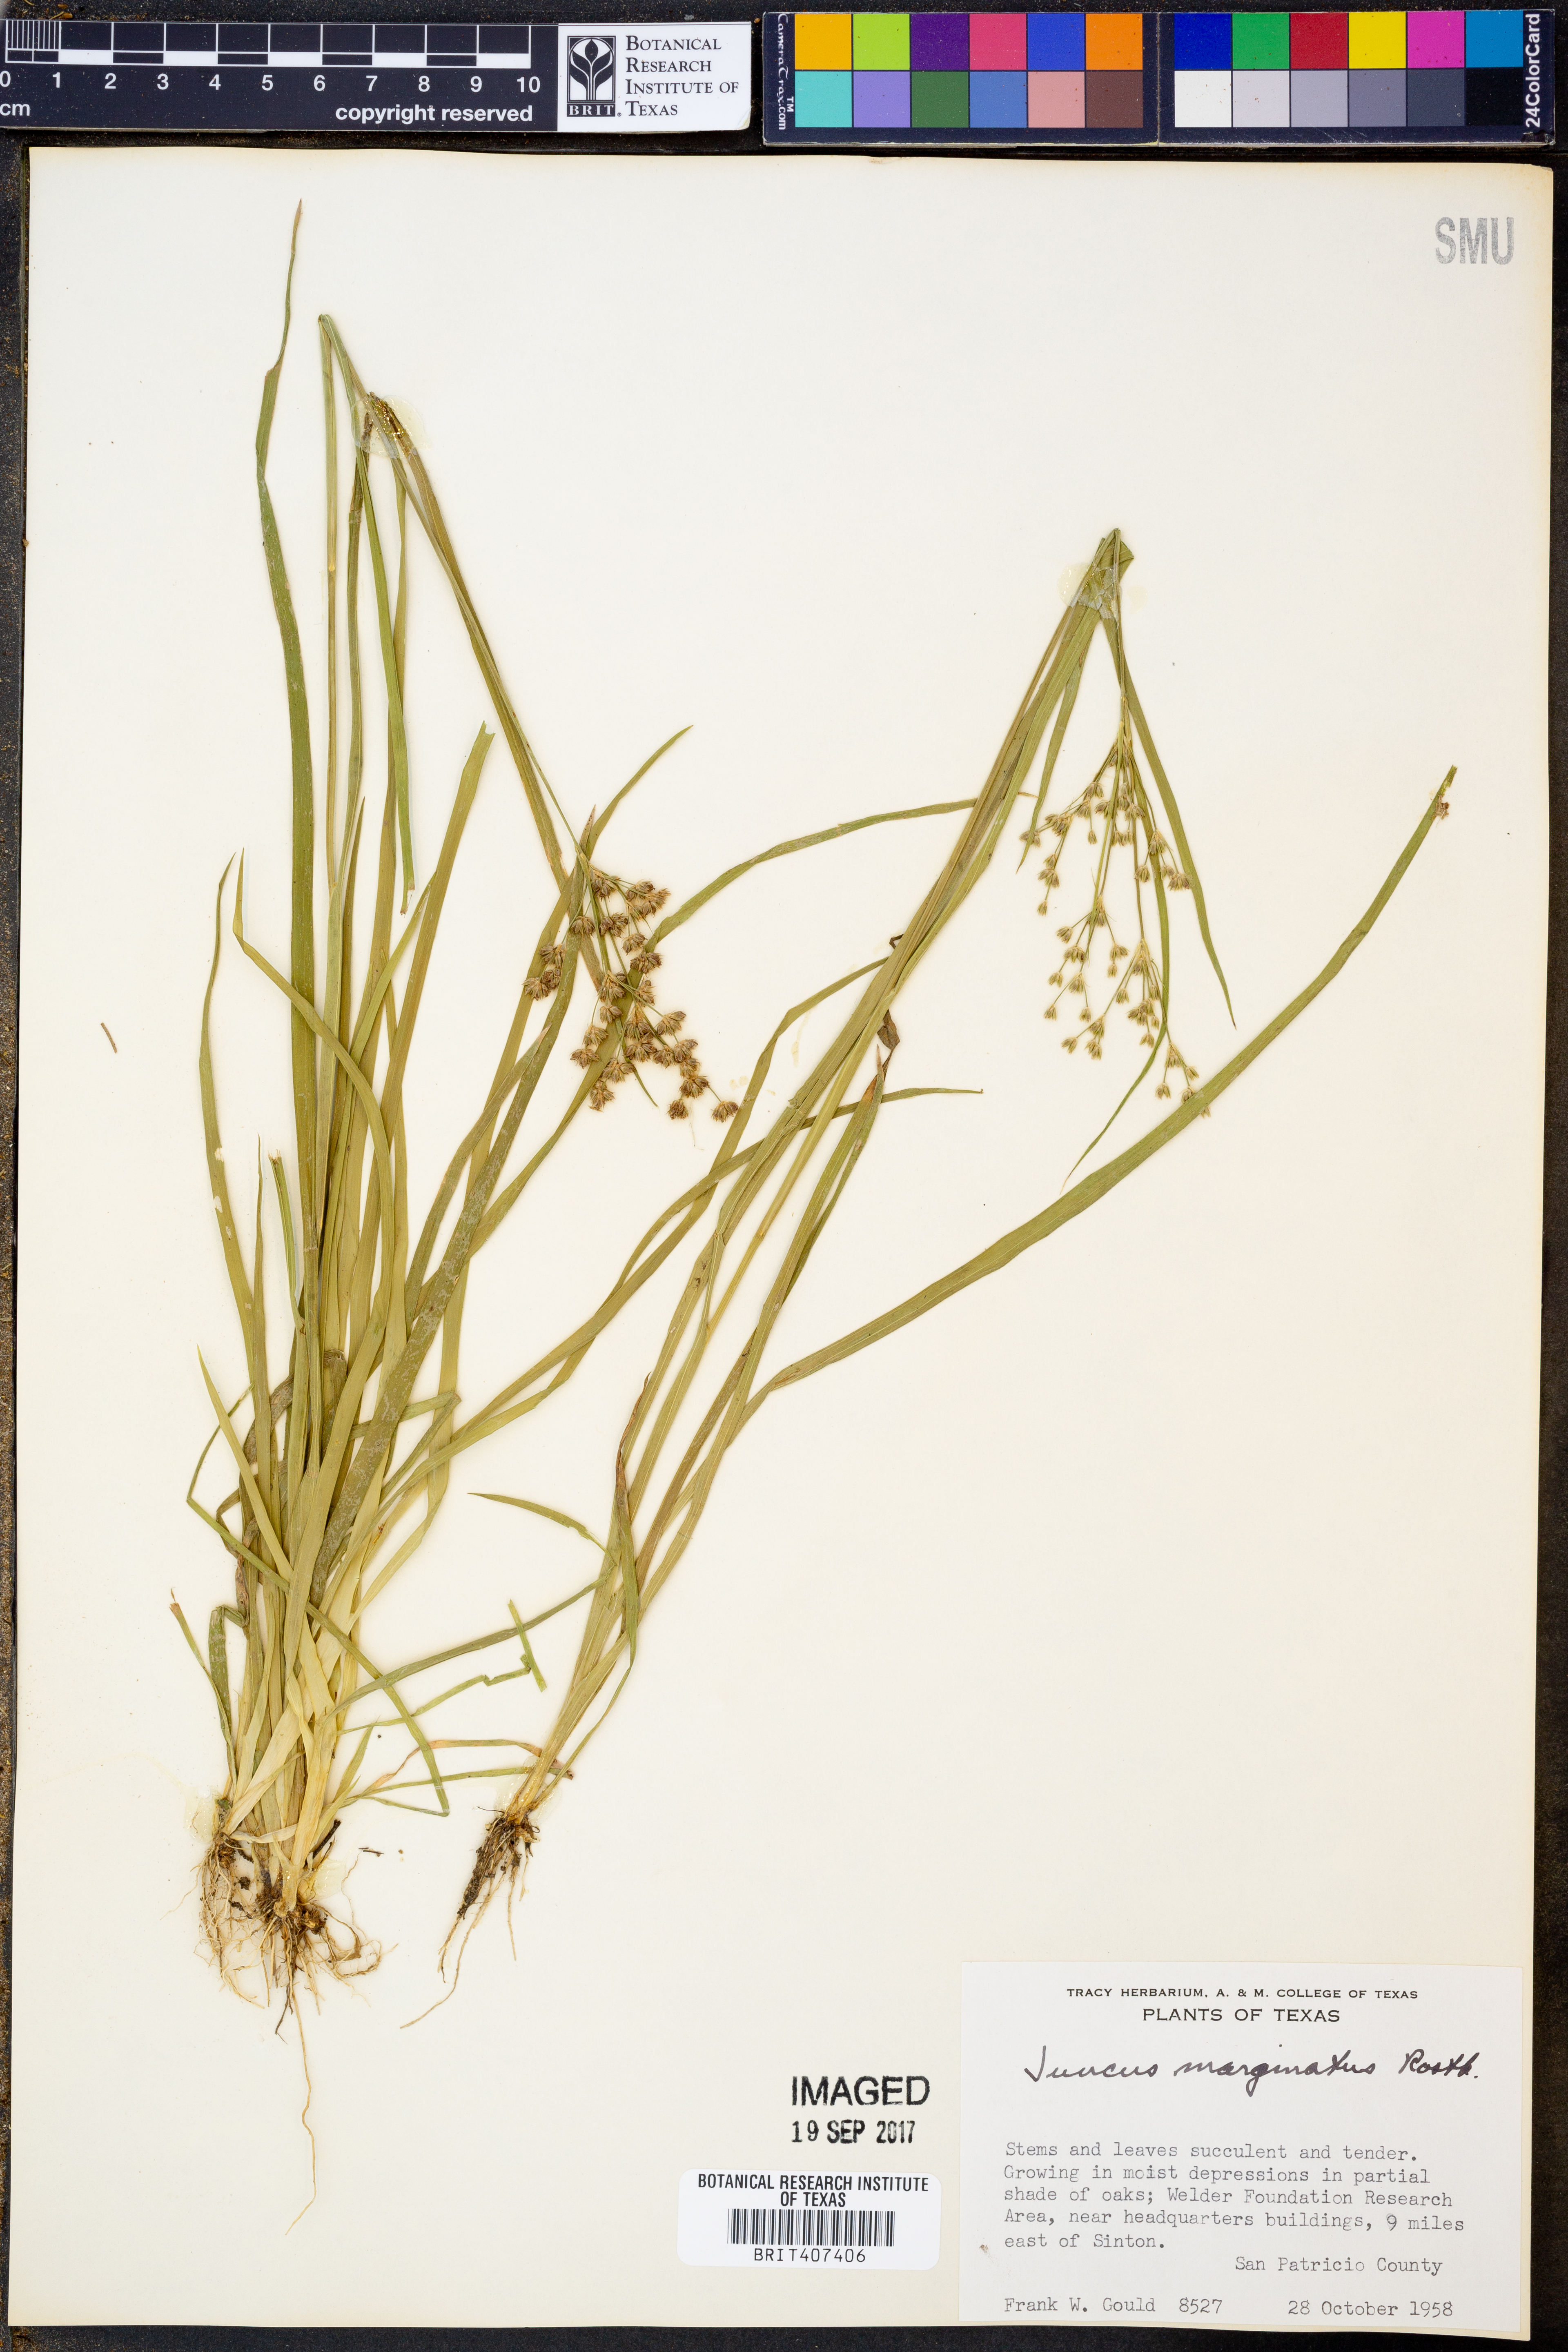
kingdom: Plantae
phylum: Tracheophyta
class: Liliopsida
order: Poales
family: Juncaceae
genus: Juncus
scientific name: Juncus marginatus
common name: Grass-leaf rush
